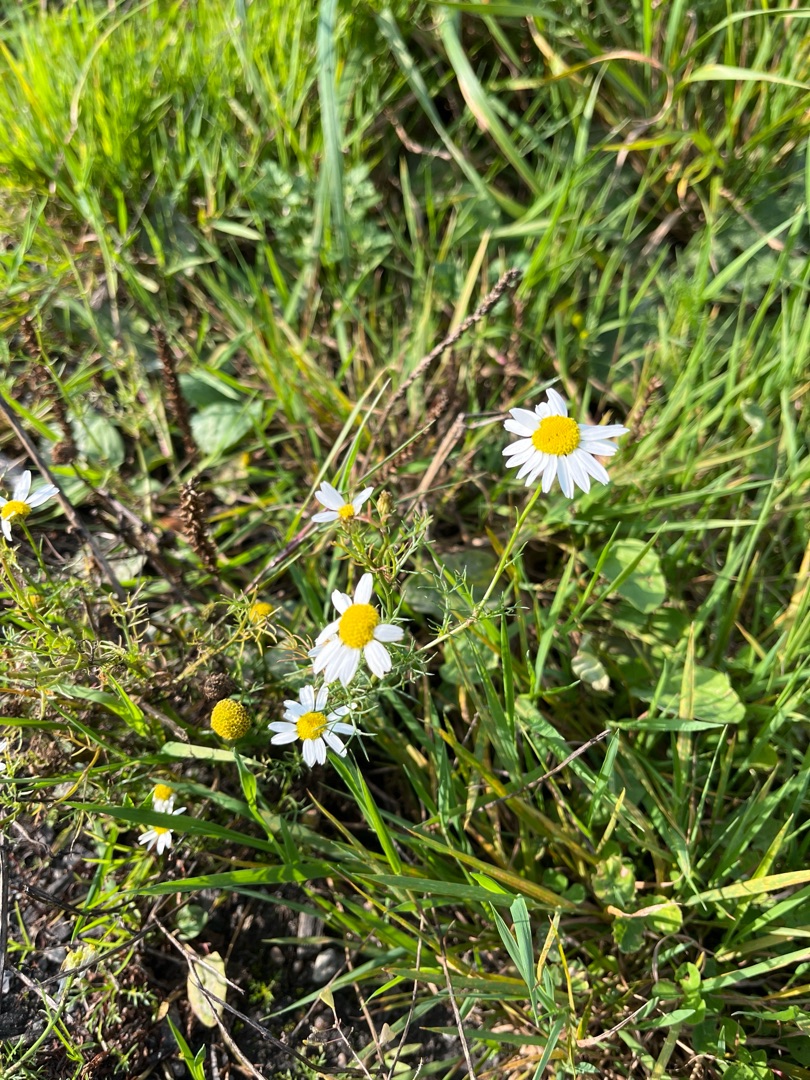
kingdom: Plantae
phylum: Tracheophyta
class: Magnoliopsida
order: Asterales
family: Asteraceae
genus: Tripleurospermum
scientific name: Tripleurospermum inodorum
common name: Lugtløs kamille
